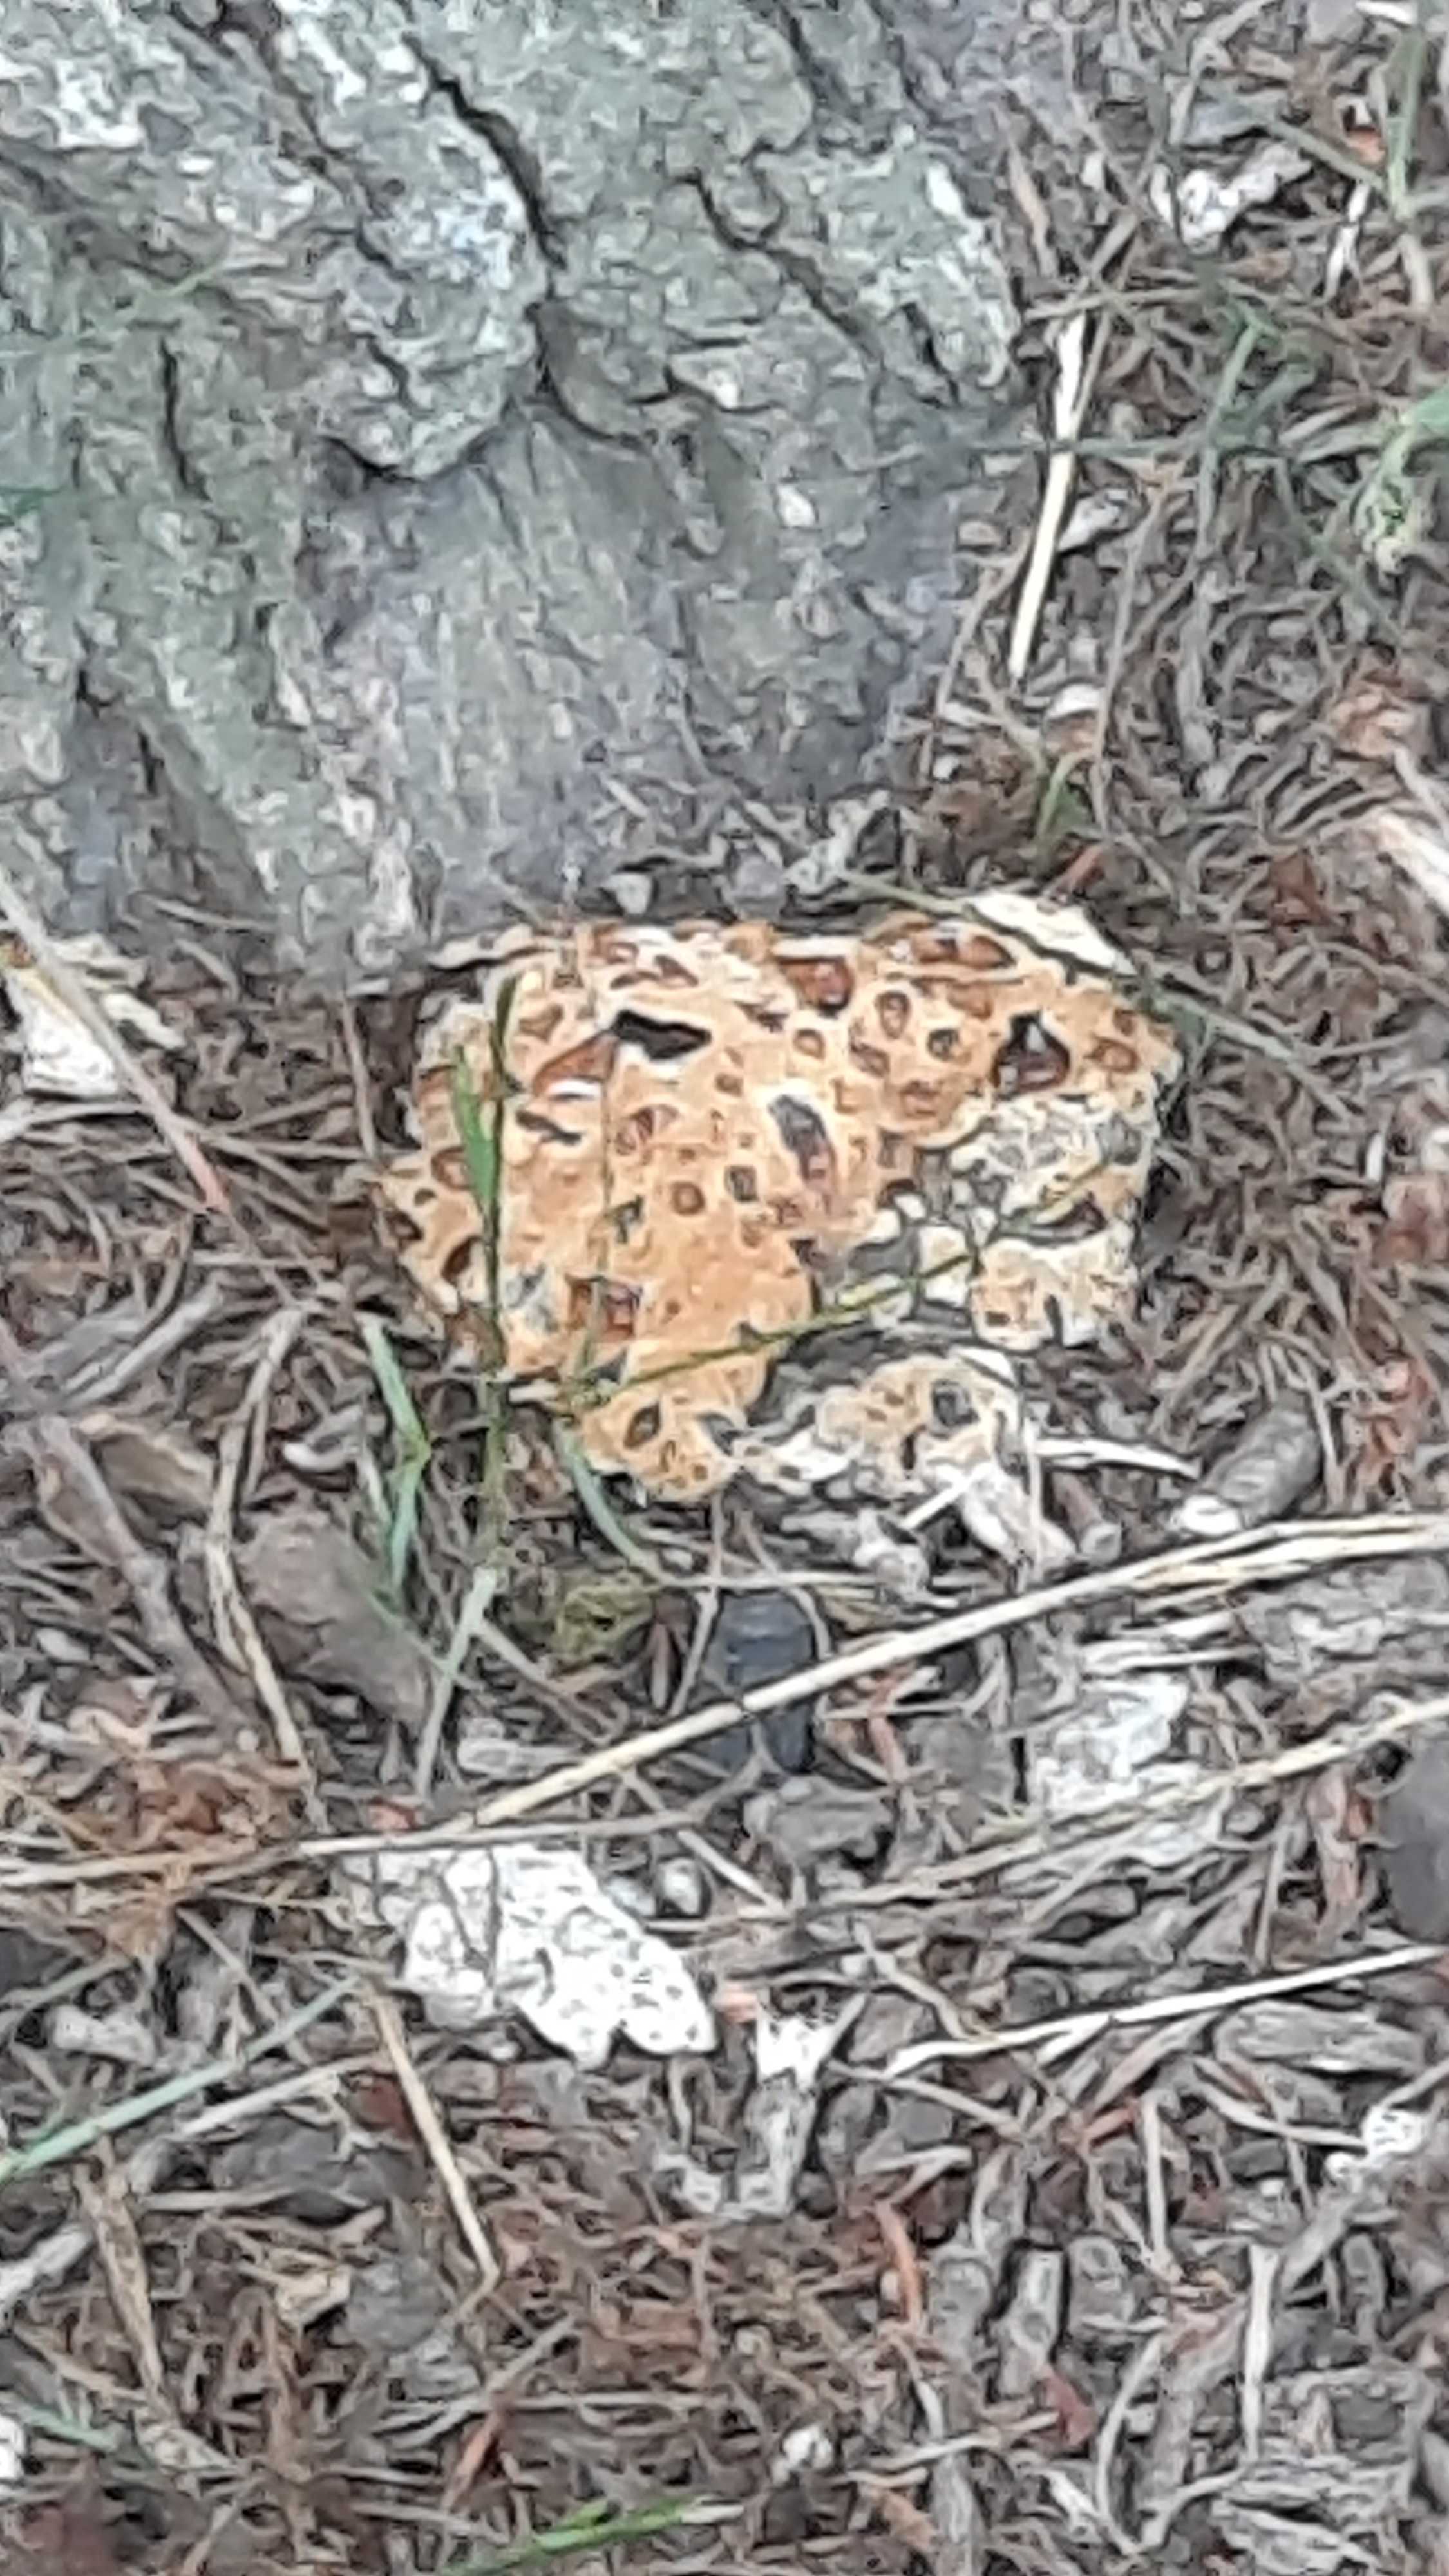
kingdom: Fungi
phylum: Basidiomycota
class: Agaricomycetes
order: Hymenochaetales
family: Hymenochaetaceae
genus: Pseudoinonotus
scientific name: Pseudoinonotus dryadeus
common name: ege-spejlporesvamp
